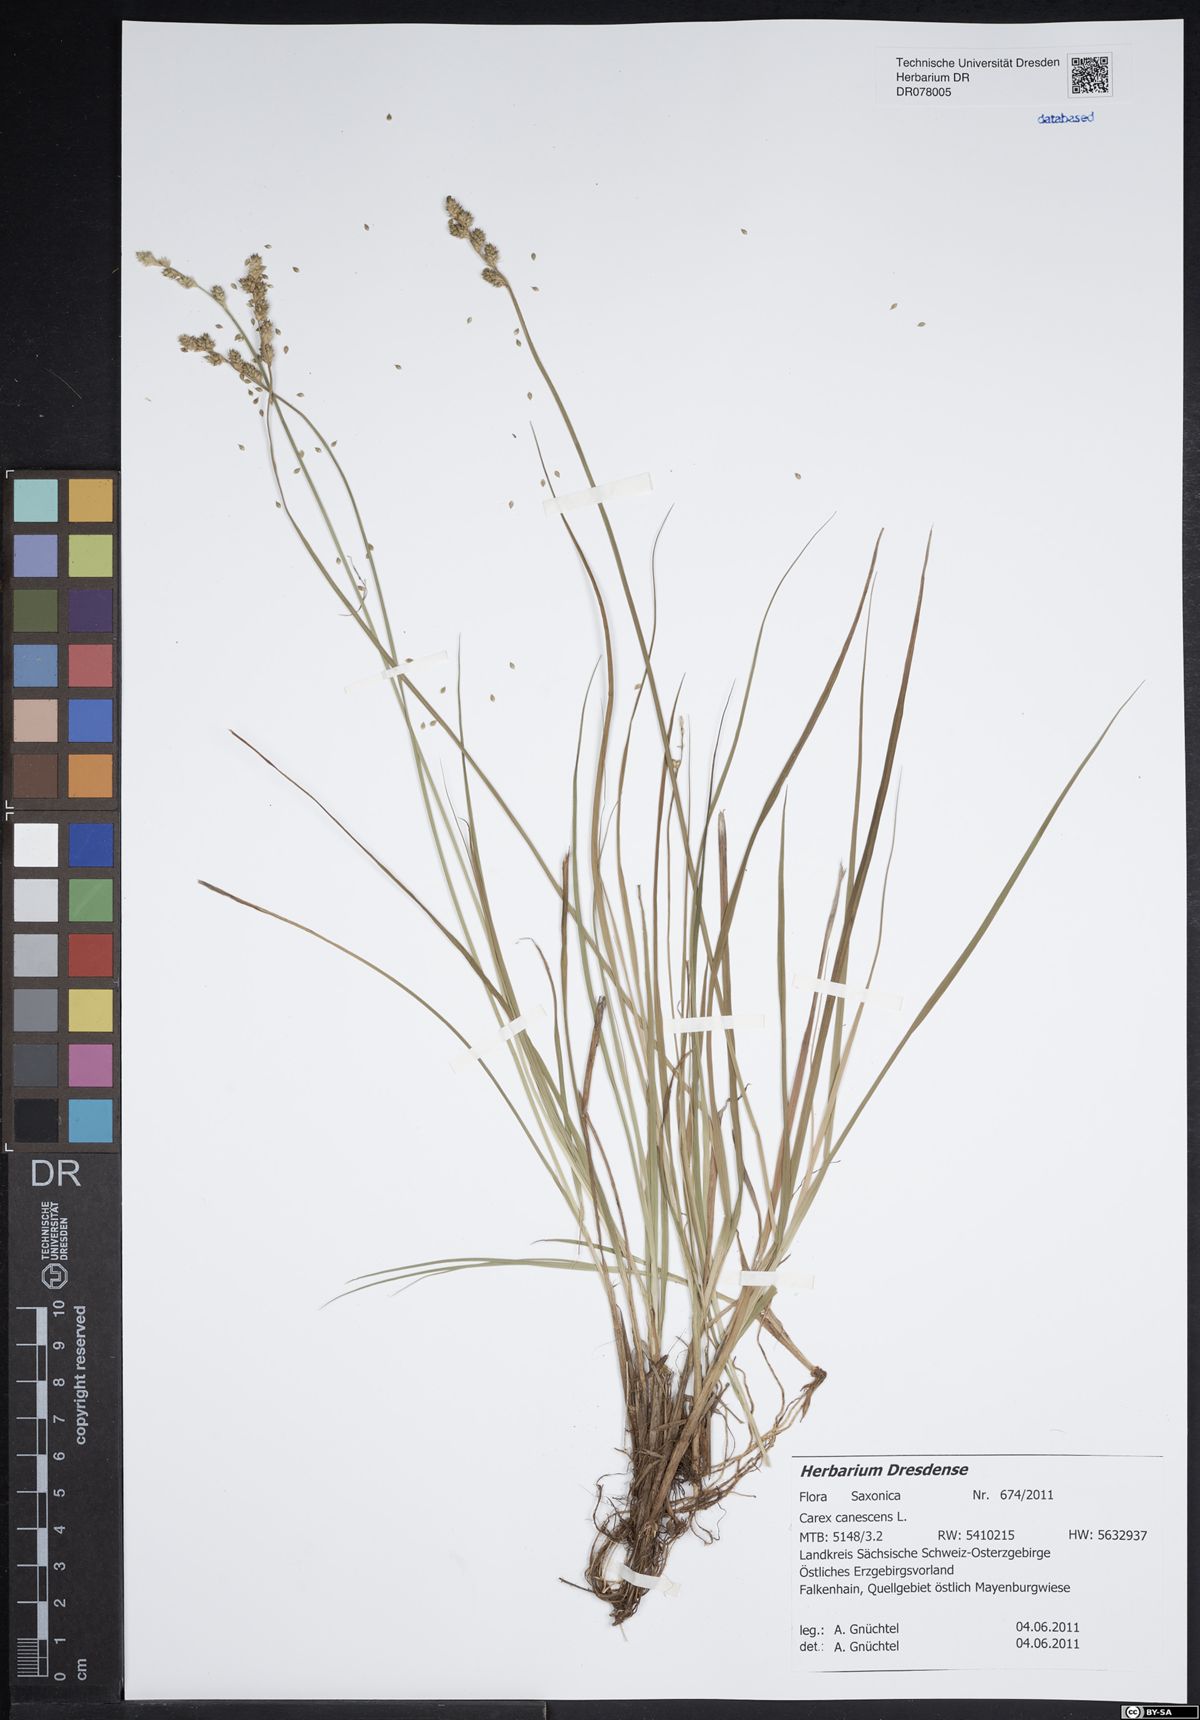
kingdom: Plantae
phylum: Tracheophyta
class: Liliopsida
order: Poales
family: Cyperaceae
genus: Carex
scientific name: Carex canescens
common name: White sedge
